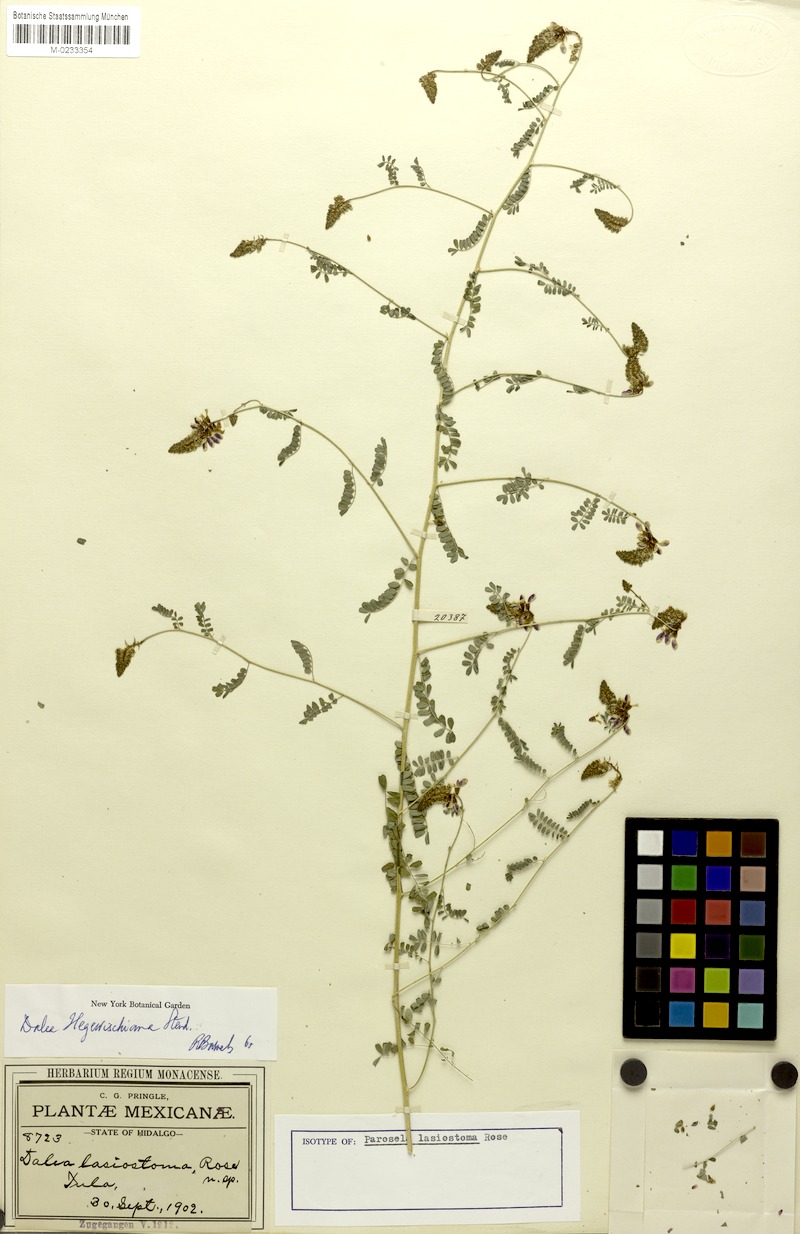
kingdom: Plantae
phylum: Tracheophyta
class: Magnoliopsida
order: Fabales
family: Fabaceae
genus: Dalea
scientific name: Dalea hegewischiana
